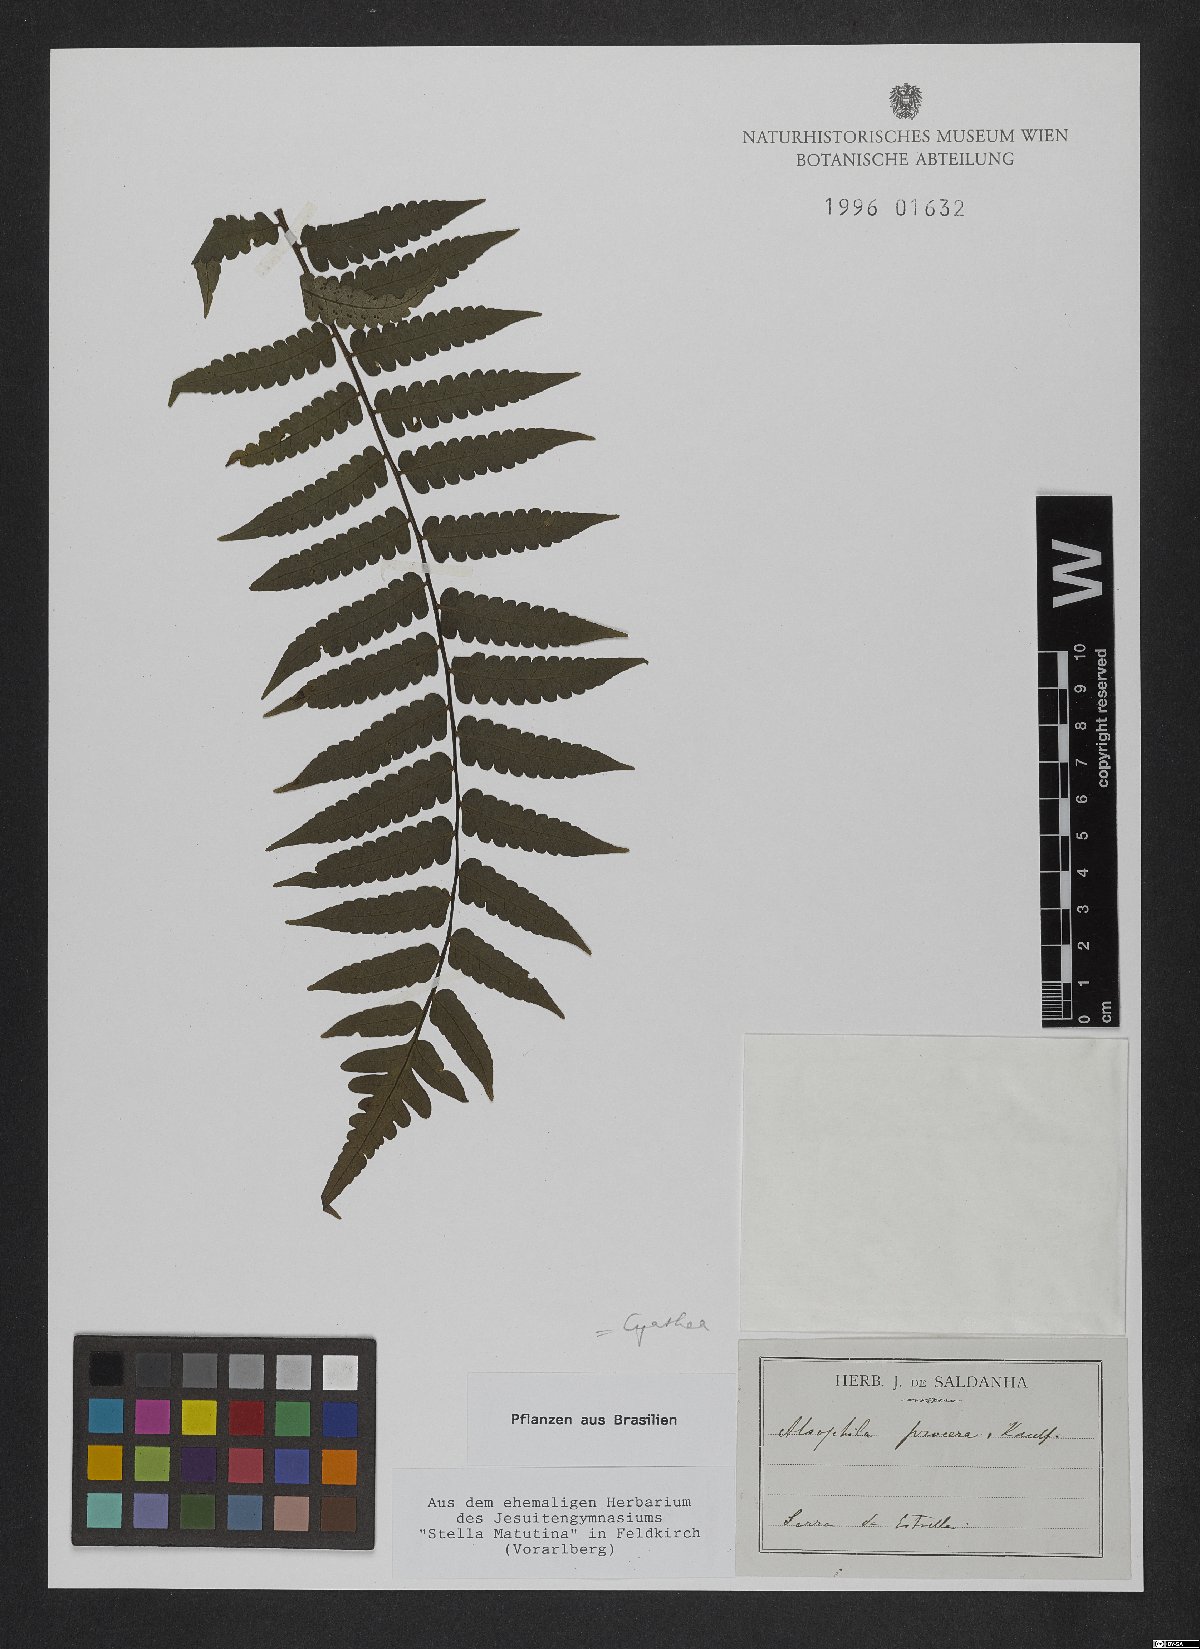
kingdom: Plantae
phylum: Tracheophyta
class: Polypodiopsida
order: Cyatheales
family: Cyatheaceae
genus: Cyathea
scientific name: Cyathea pungens
